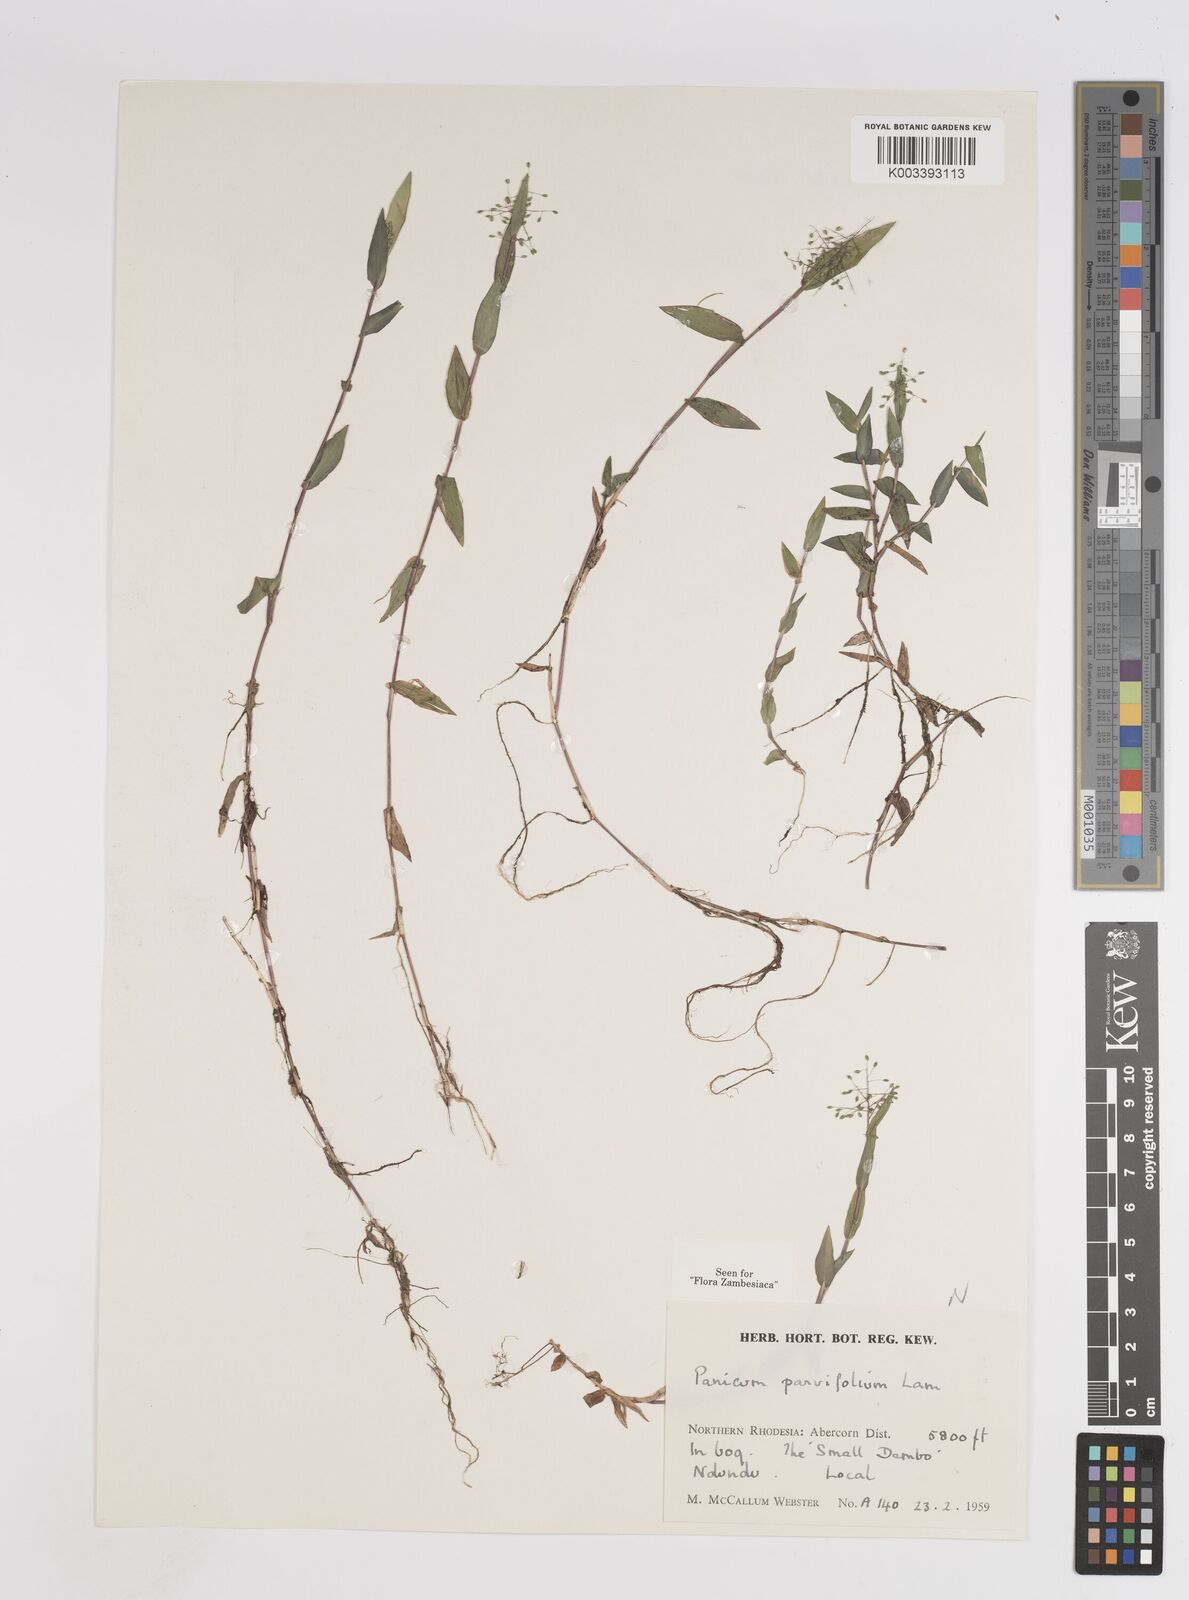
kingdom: Plantae
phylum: Tracheophyta
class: Liliopsida
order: Poales
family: Poaceae
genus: Trichanthecium
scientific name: Trichanthecium parvifolium
